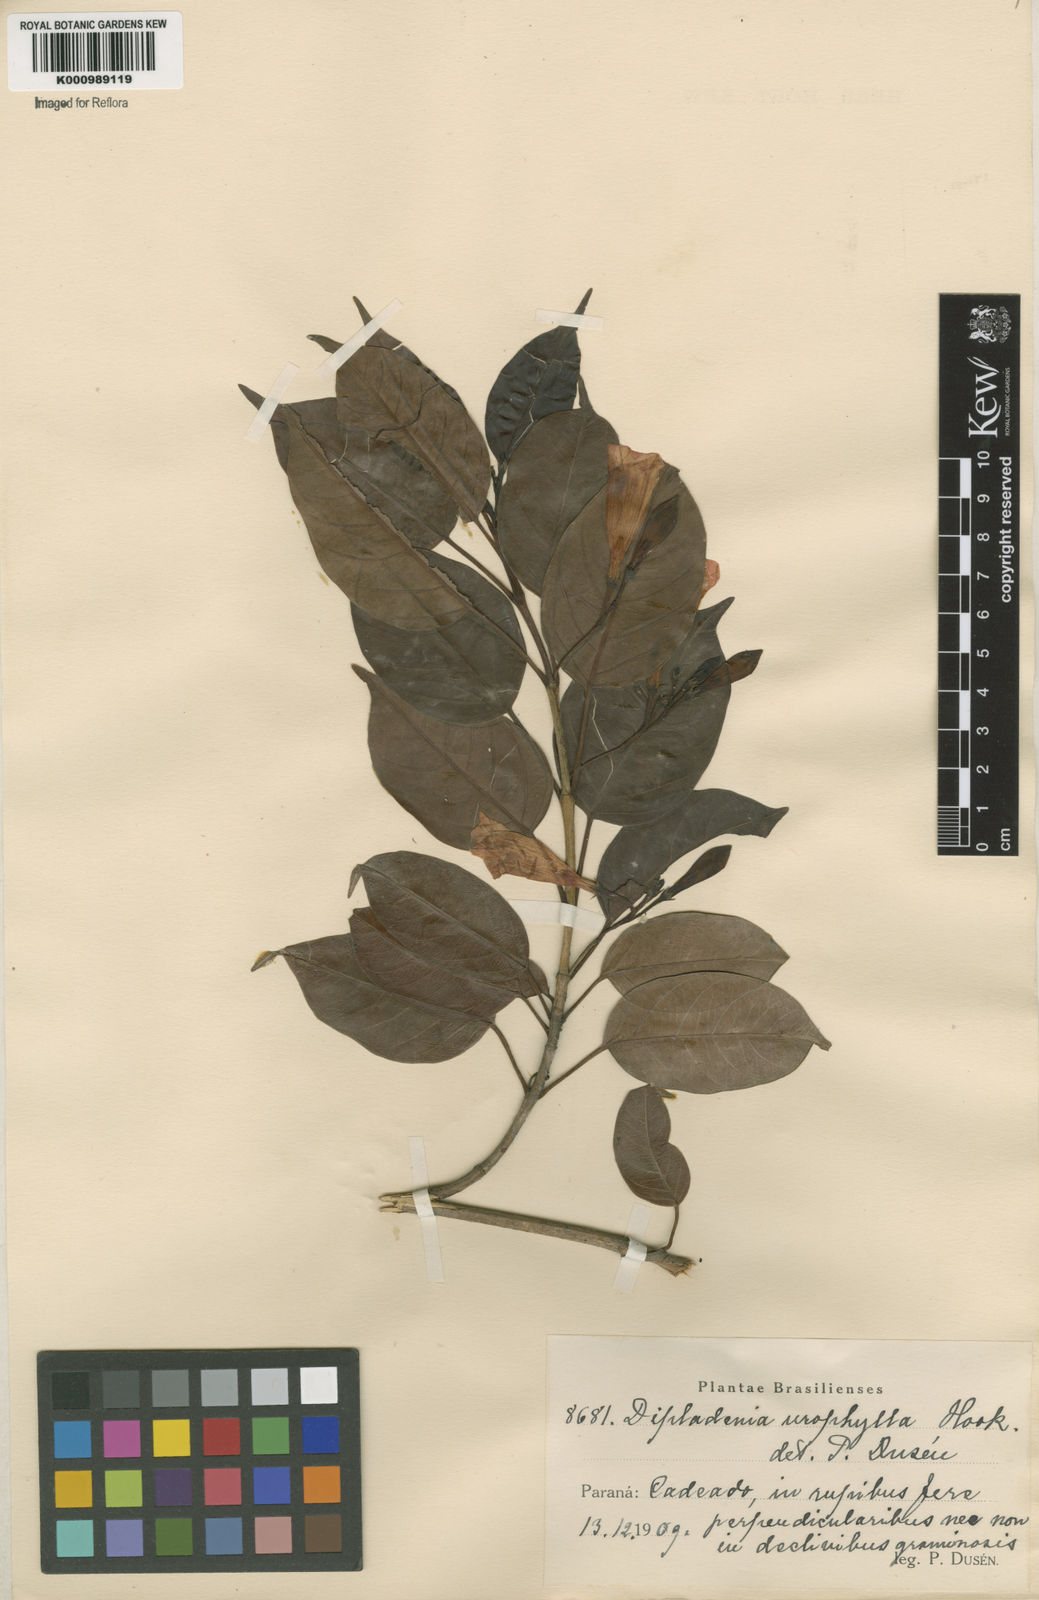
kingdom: Plantae
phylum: Tracheophyta
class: Magnoliopsida
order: Gentianales
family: Apocynaceae
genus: Mandevilla
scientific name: Mandevilla urophylla
